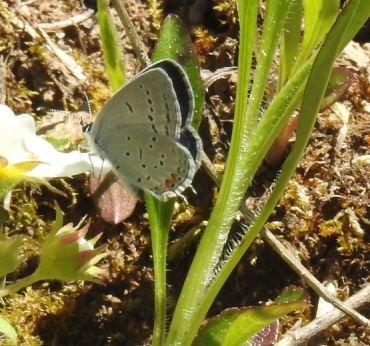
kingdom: Animalia
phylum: Arthropoda
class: Insecta
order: Lepidoptera
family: Lycaenidae
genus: Elkalyce
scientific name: Elkalyce comyntas
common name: Eastern Tailed-Blue
